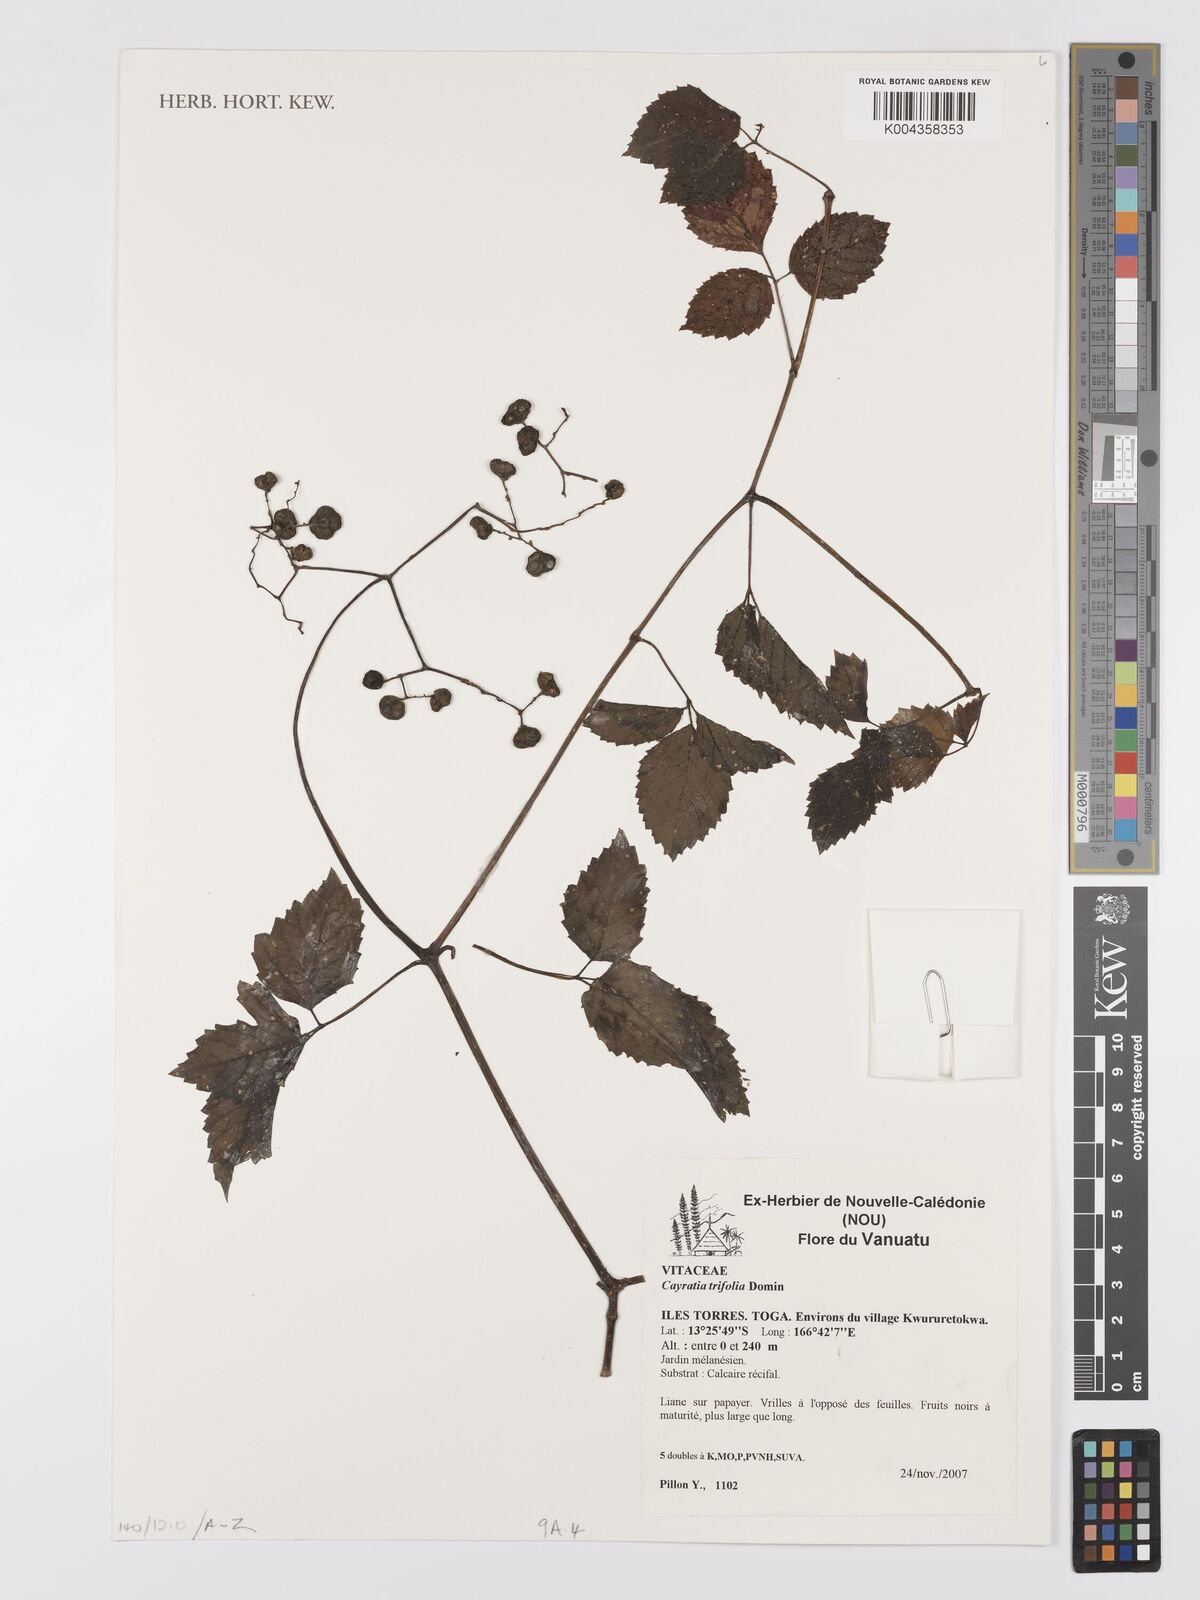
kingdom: Plantae
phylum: Tracheophyta
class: Magnoliopsida
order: Vitales
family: Vitaceae
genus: Causonis
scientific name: Causonis trifolia
